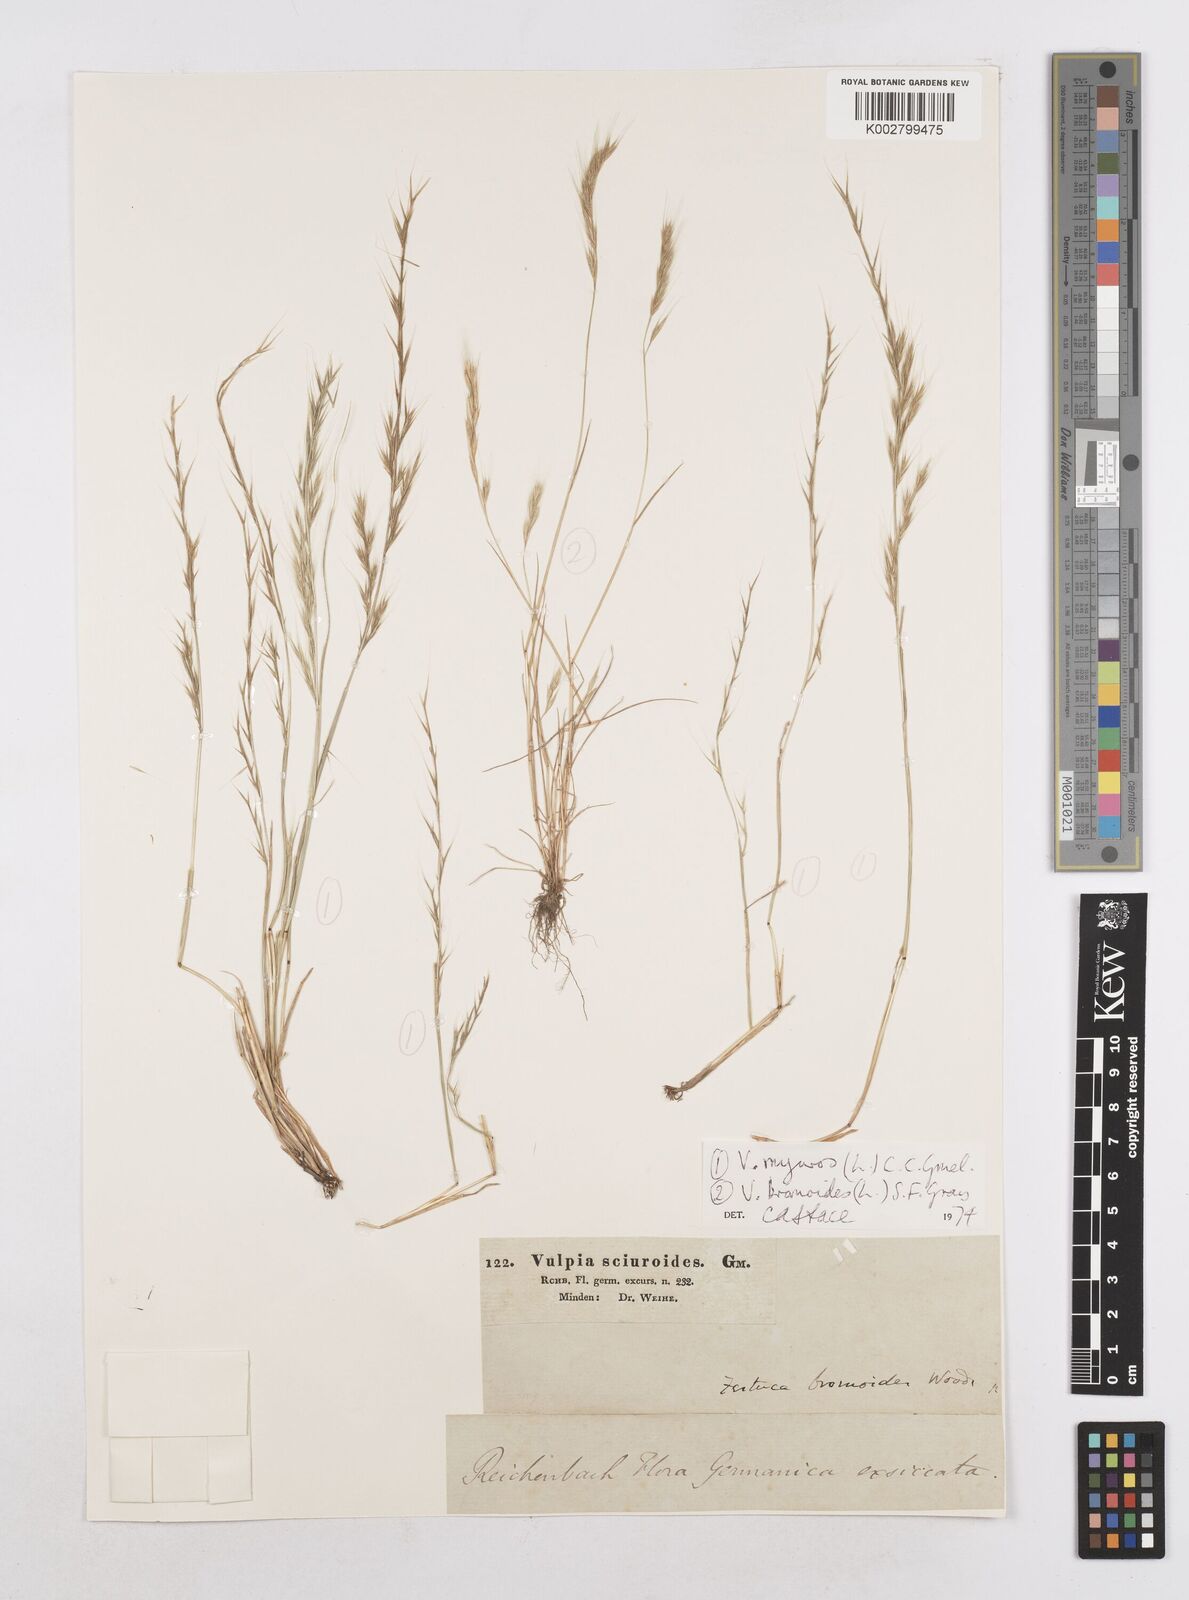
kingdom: Plantae
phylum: Tracheophyta
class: Liliopsida
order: Poales
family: Poaceae
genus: Festuca
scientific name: Festuca myuros
